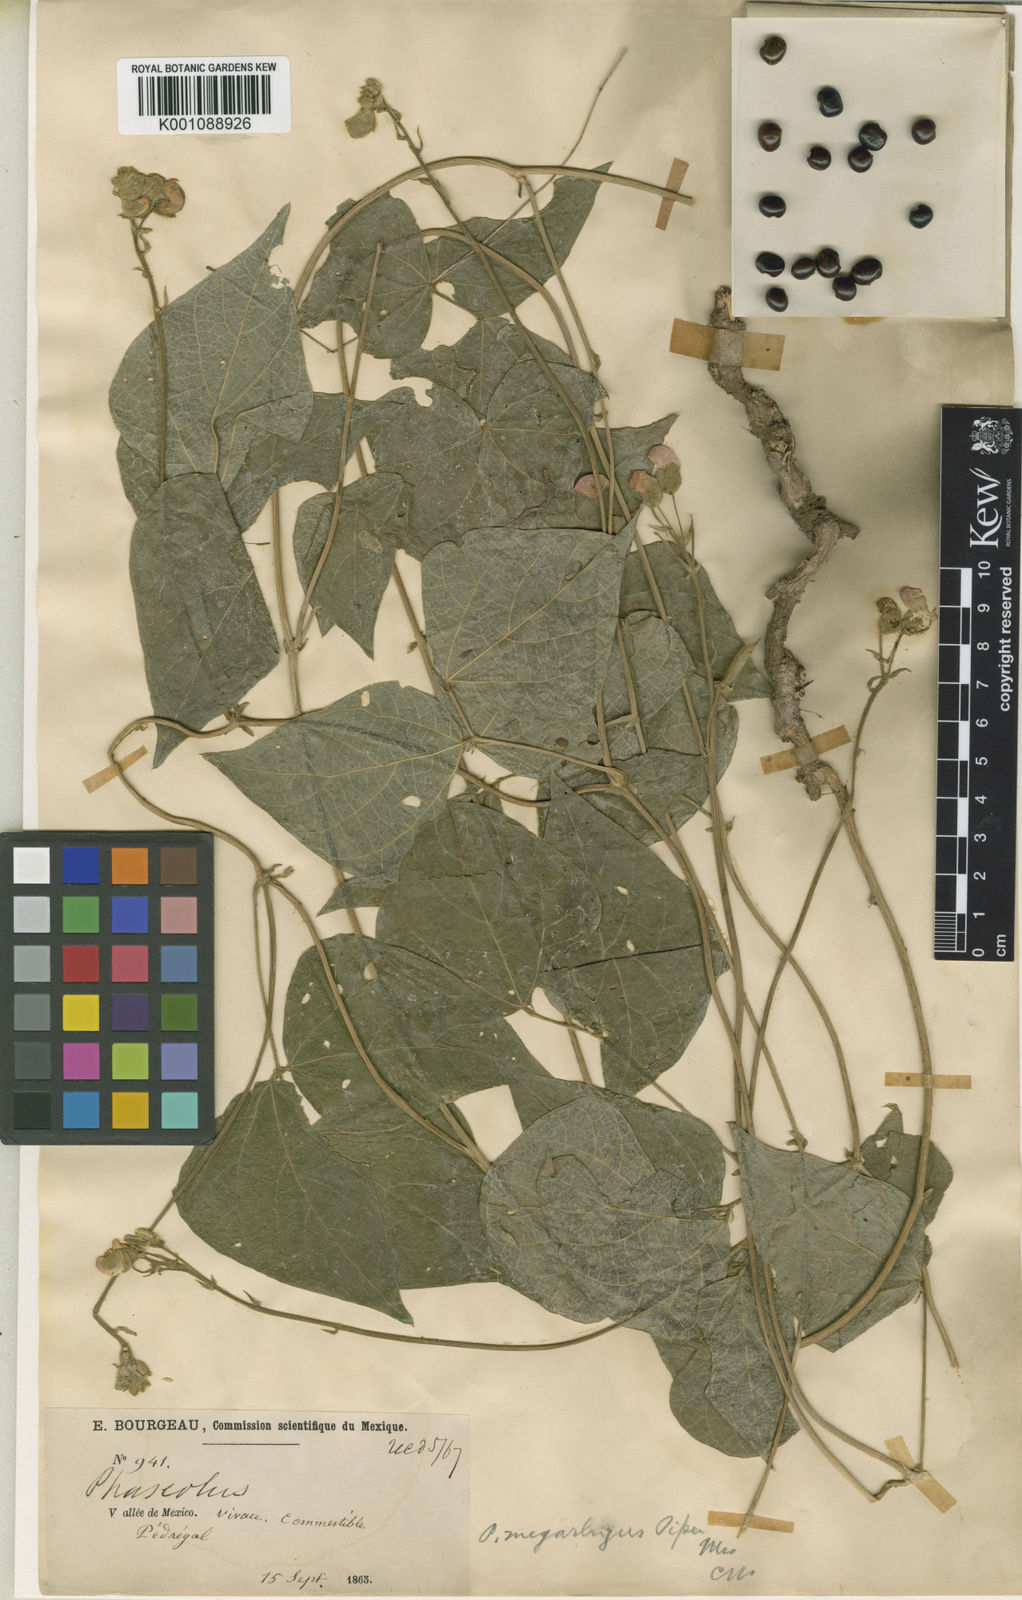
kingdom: Plantae
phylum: Tracheophyta
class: Magnoliopsida
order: Fabales
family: Fabaceae
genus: Phaseolus
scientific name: Phaseolus coccineus
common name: Runner bean
